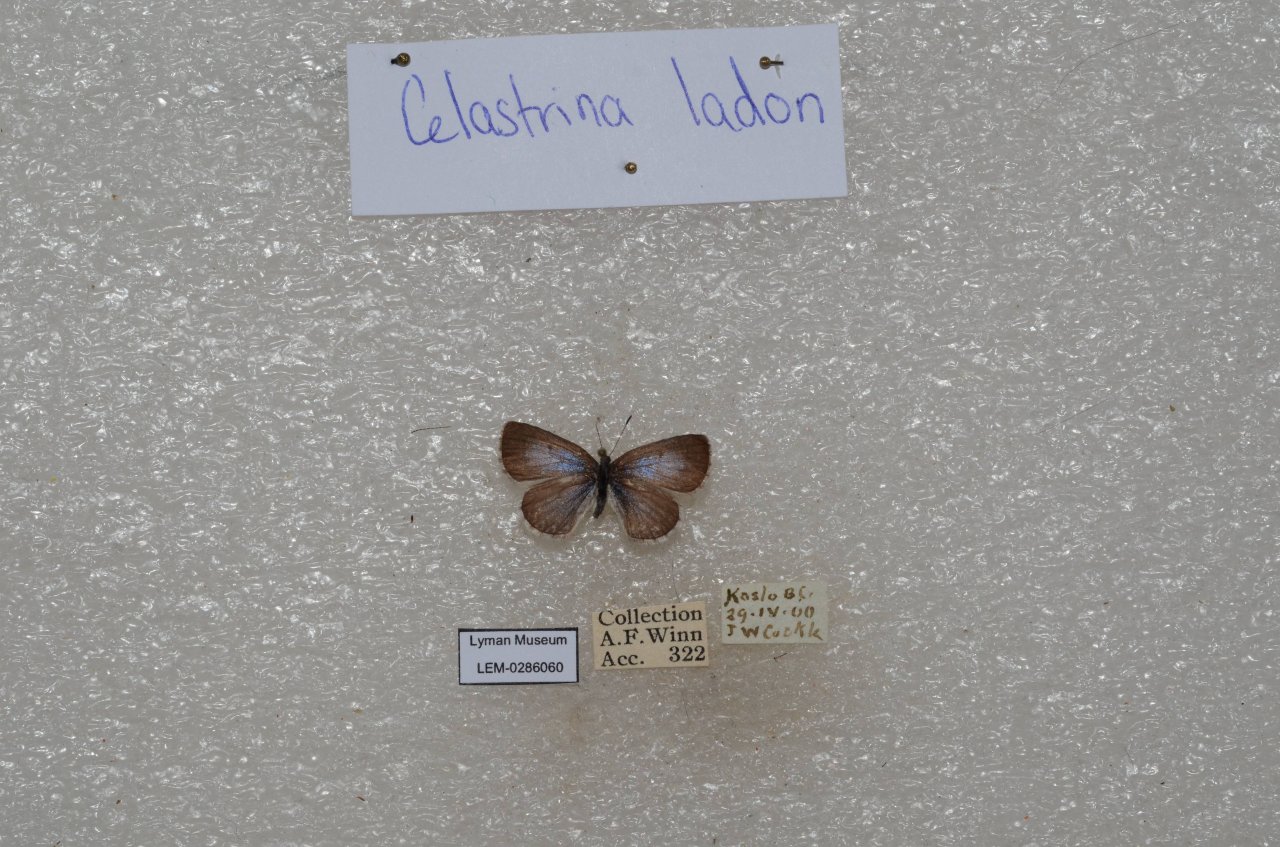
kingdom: Animalia
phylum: Arthropoda
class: Insecta
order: Lepidoptera
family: Lycaenidae
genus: Celastrina
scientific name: Celastrina
